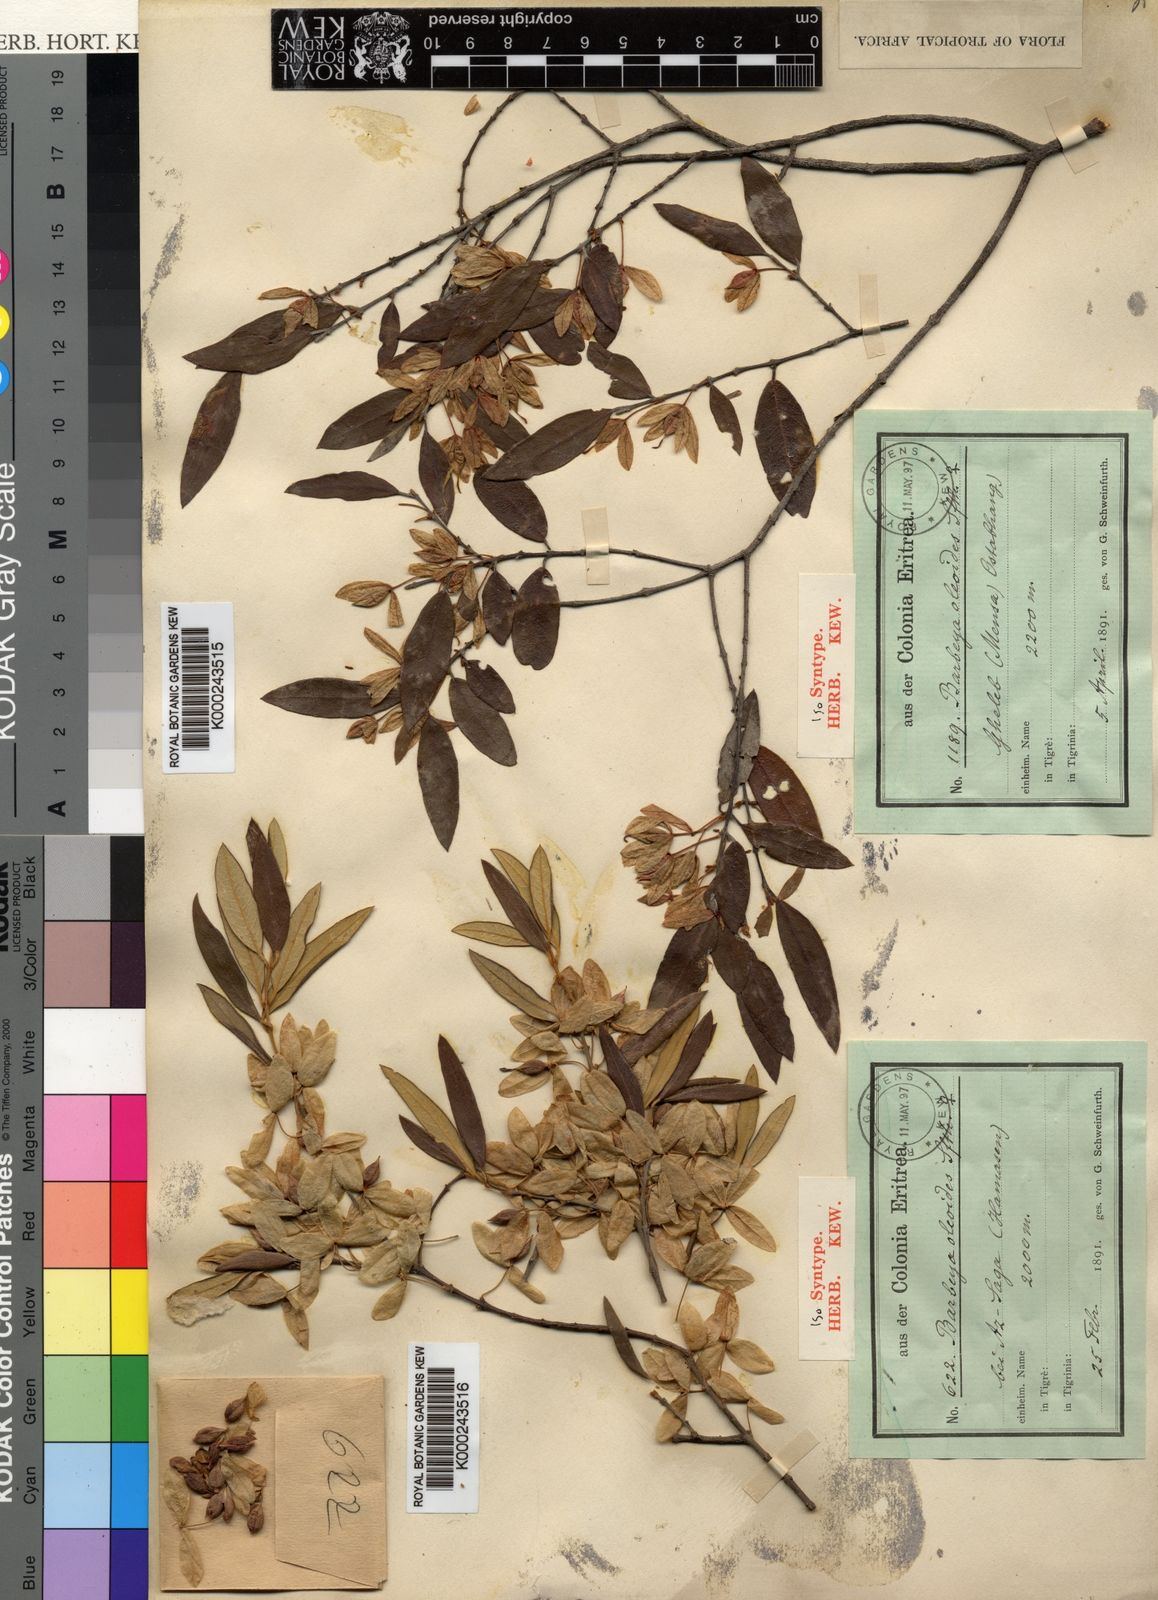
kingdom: Plantae
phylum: Tracheophyta
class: Magnoliopsida
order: Rosales
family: Barbeyaceae
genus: Barbeya
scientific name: Barbeya oleoides
